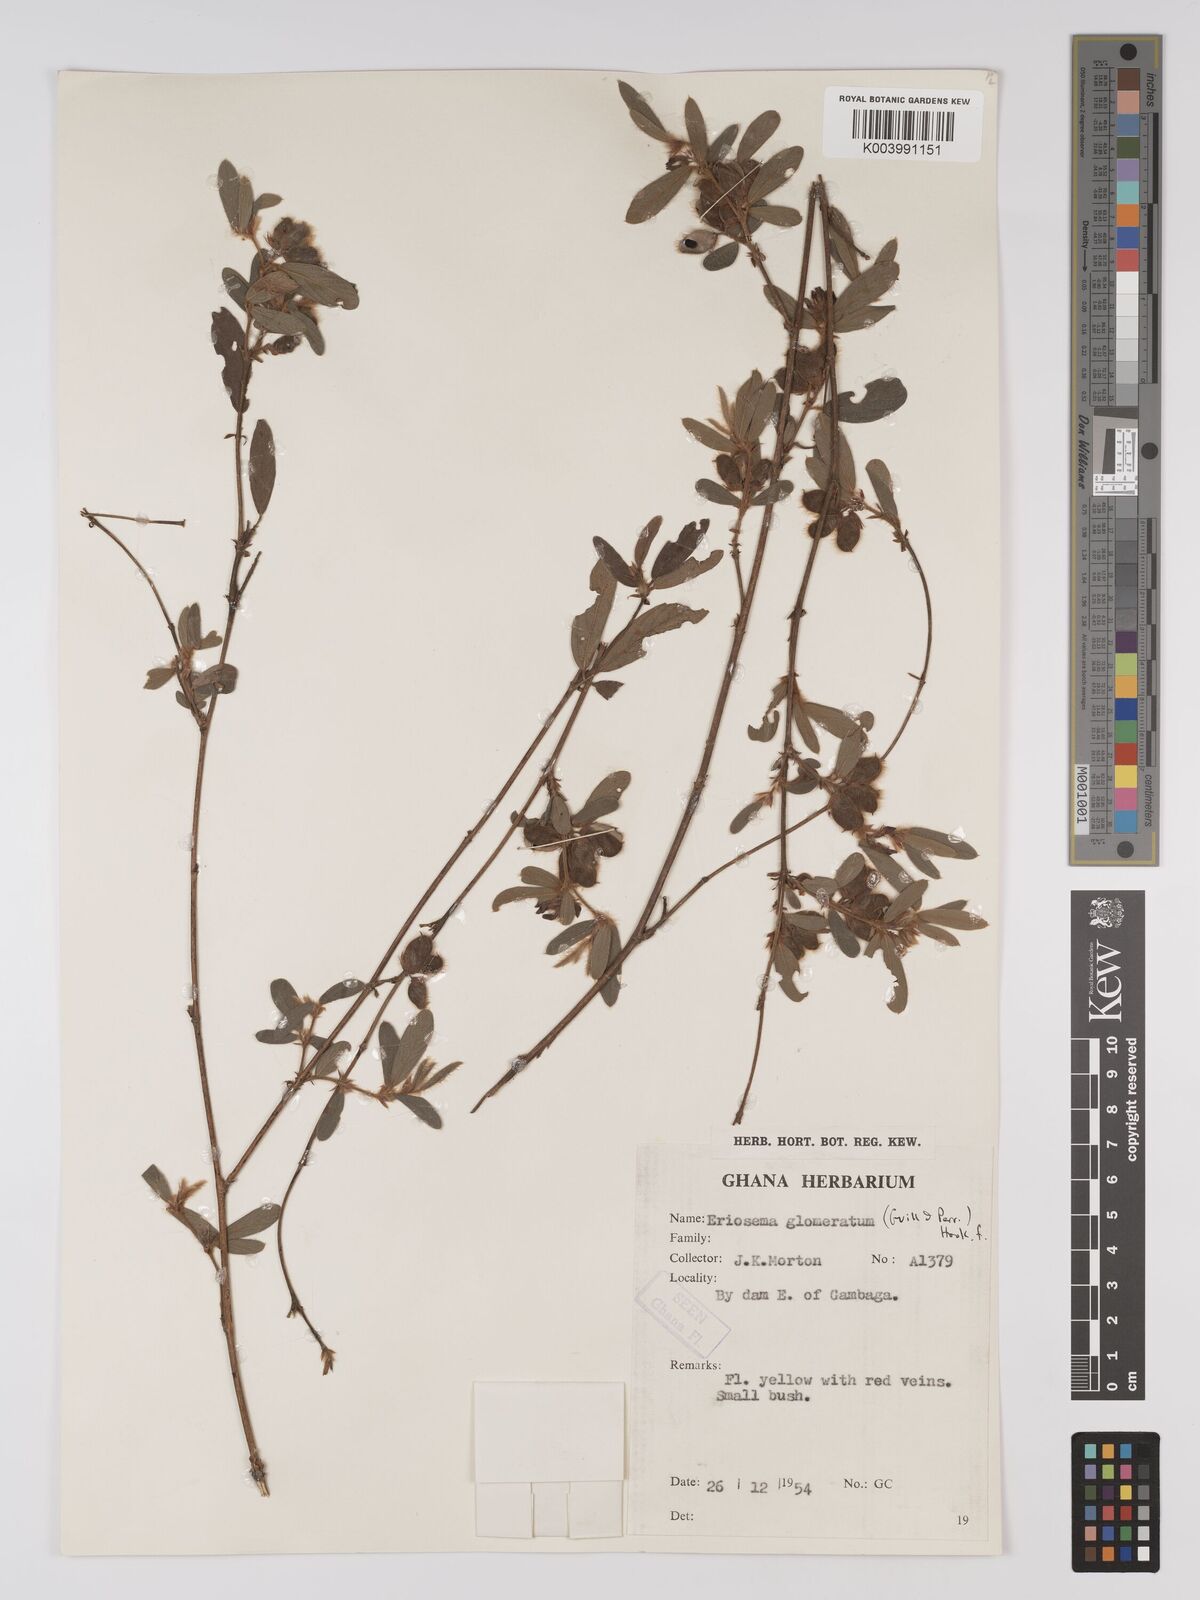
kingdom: Plantae
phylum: Tracheophyta
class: Magnoliopsida
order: Fabales
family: Fabaceae
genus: Eriosema
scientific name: Eriosema glomeratum
